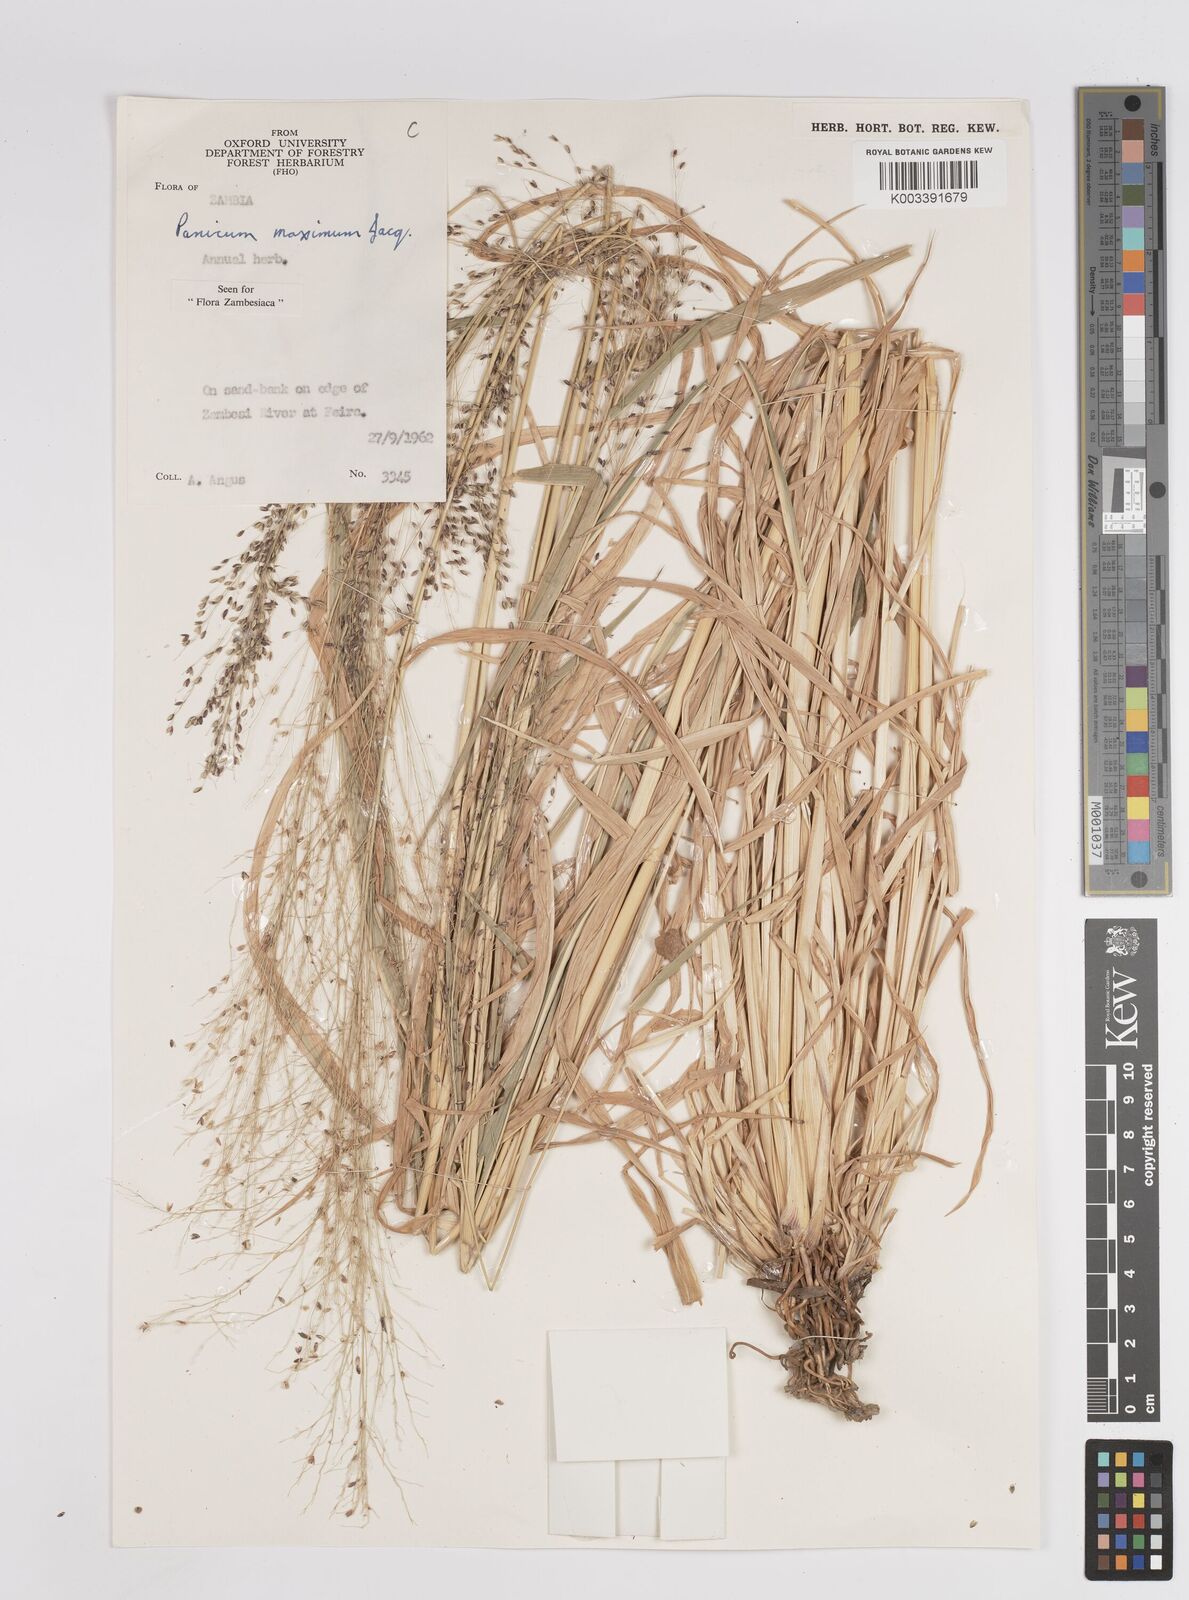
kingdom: Plantae
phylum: Tracheophyta
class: Liliopsida
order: Poales
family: Poaceae
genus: Megathyrsus
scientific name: Megathyrsus maximus
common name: Guineagrass
